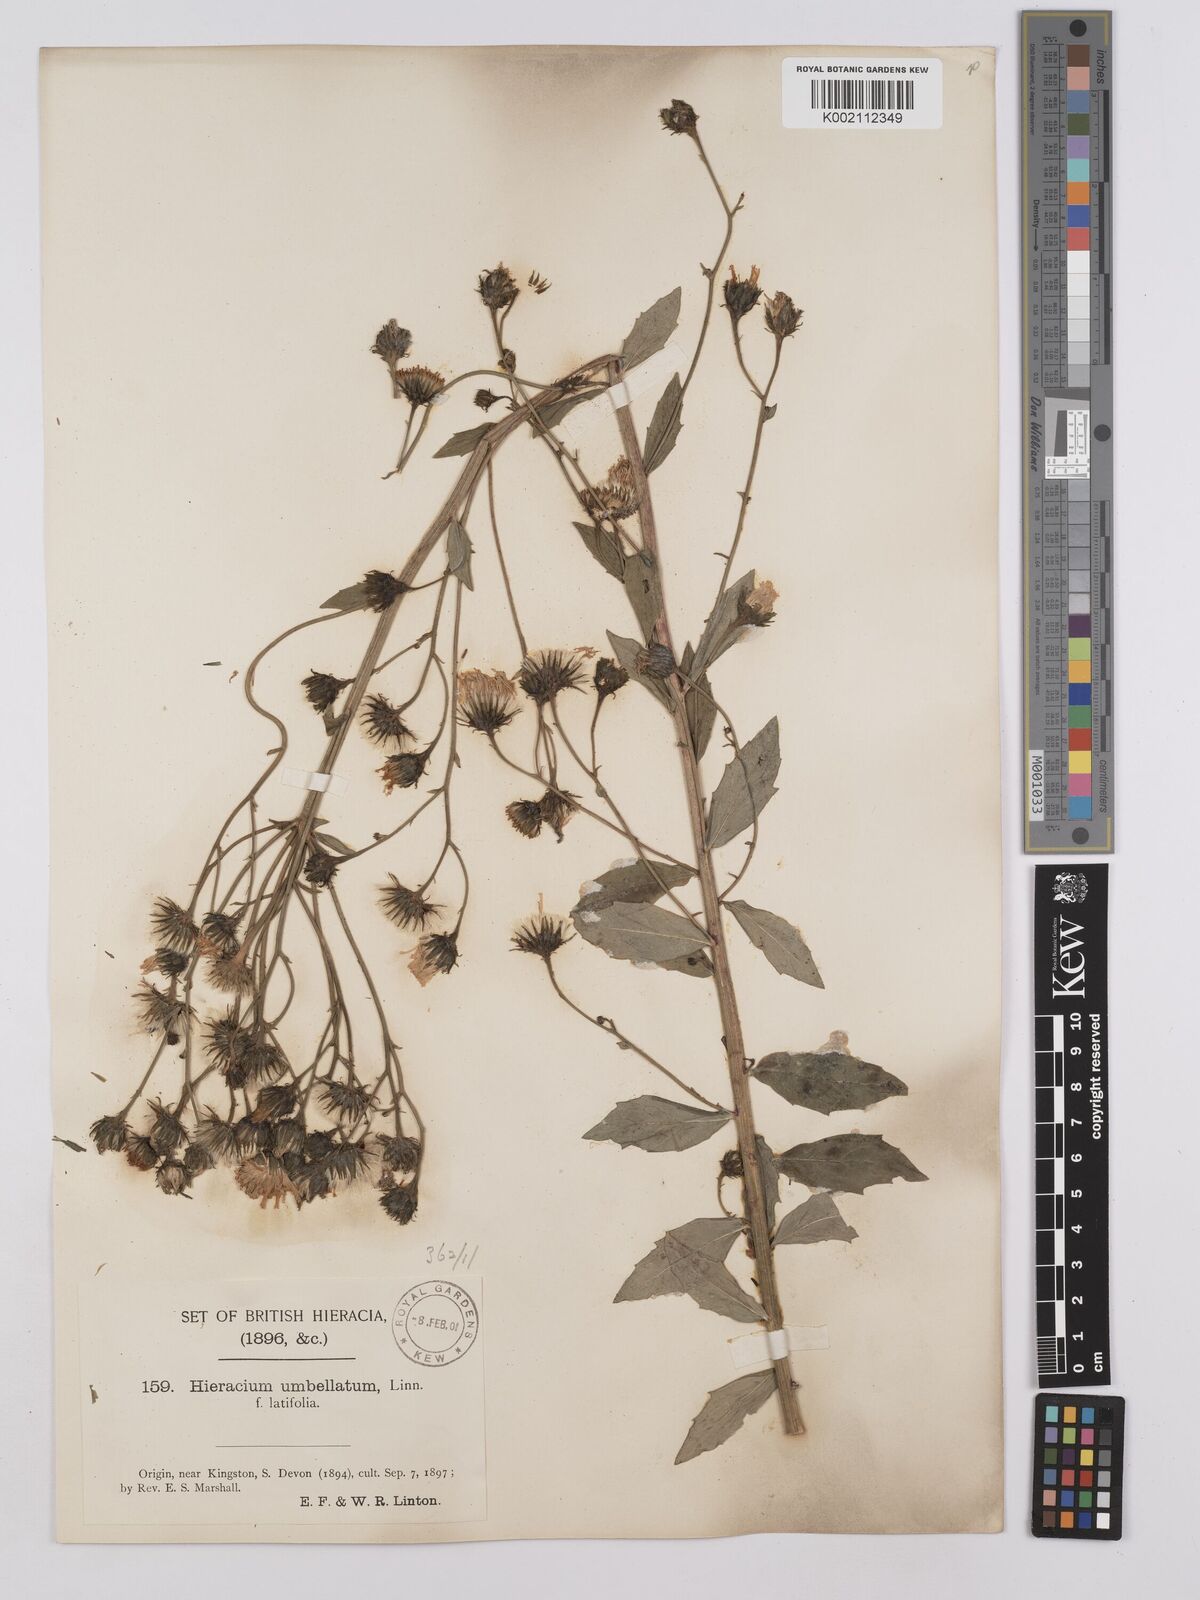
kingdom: Plantae
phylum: Tracheophyta
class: Magnoliopsida
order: Asterales
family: Asteraceae
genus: Hieracium
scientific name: Hieracium umbellatum
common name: Northern hawkweed
